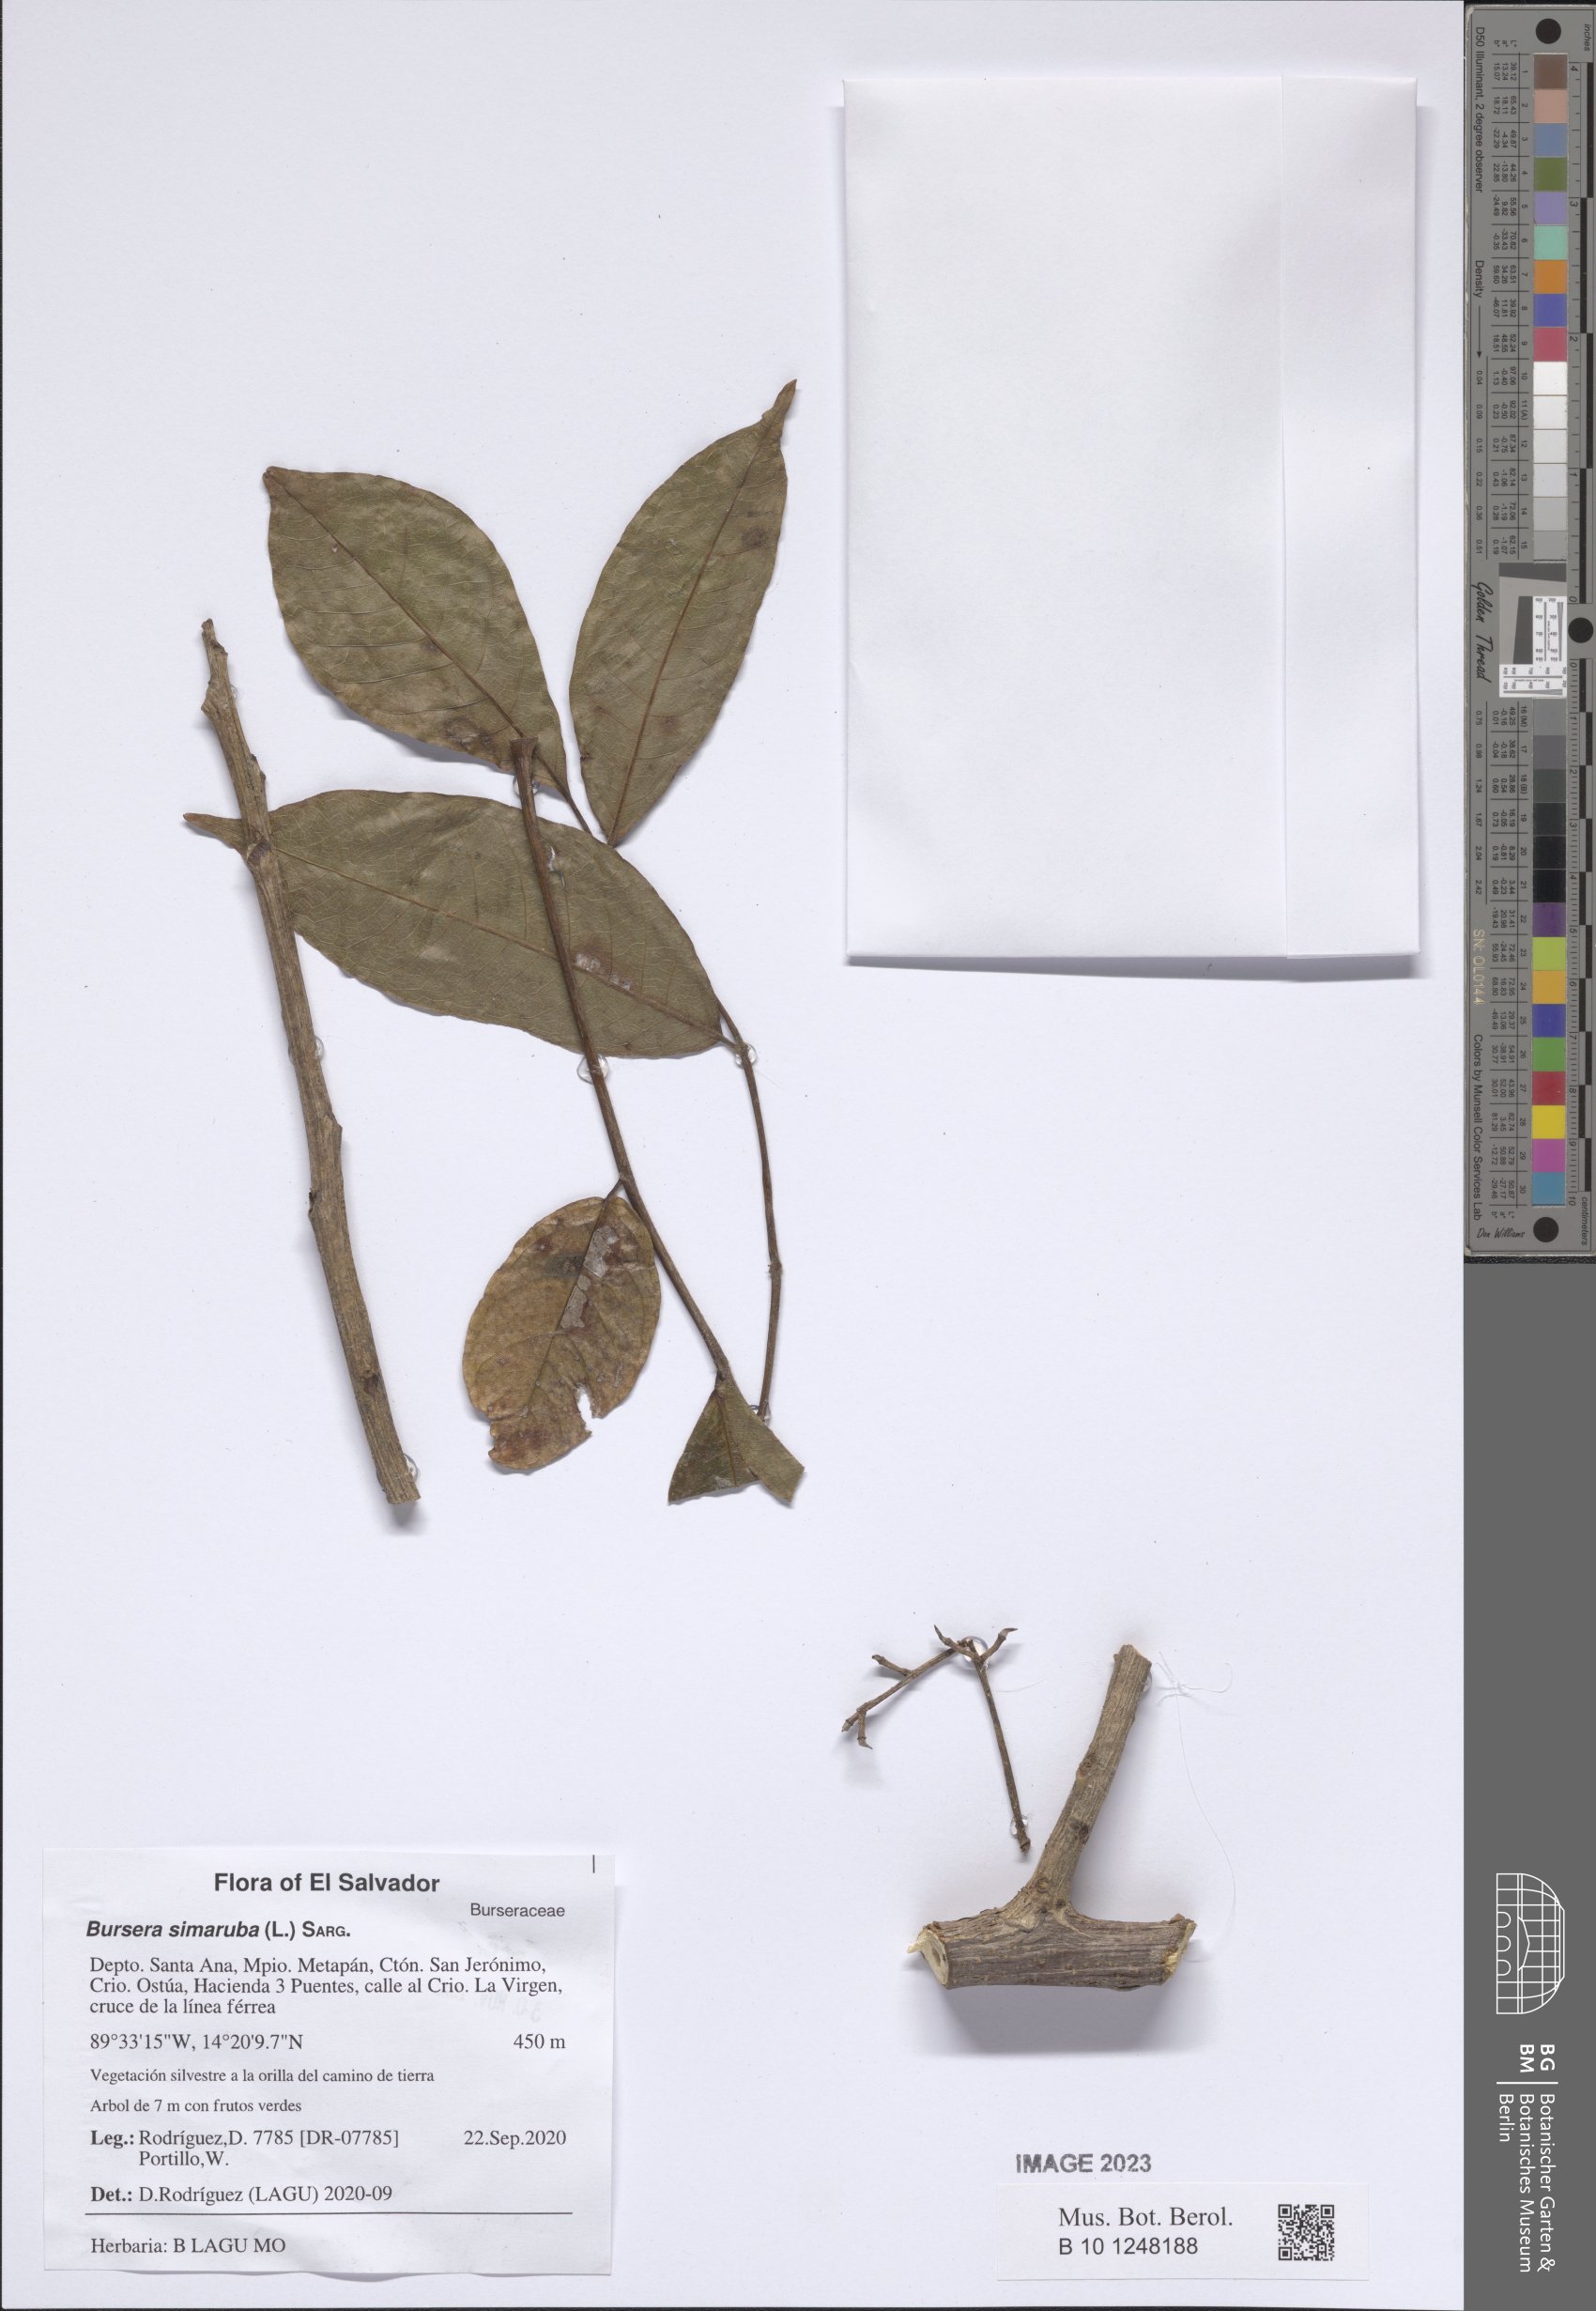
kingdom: Plantae
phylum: Tracheophyta
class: Magnoliopsida
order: Sapindales
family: Burseraceae
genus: Bursera
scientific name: Bursera simaruba
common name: Turpentine tree
